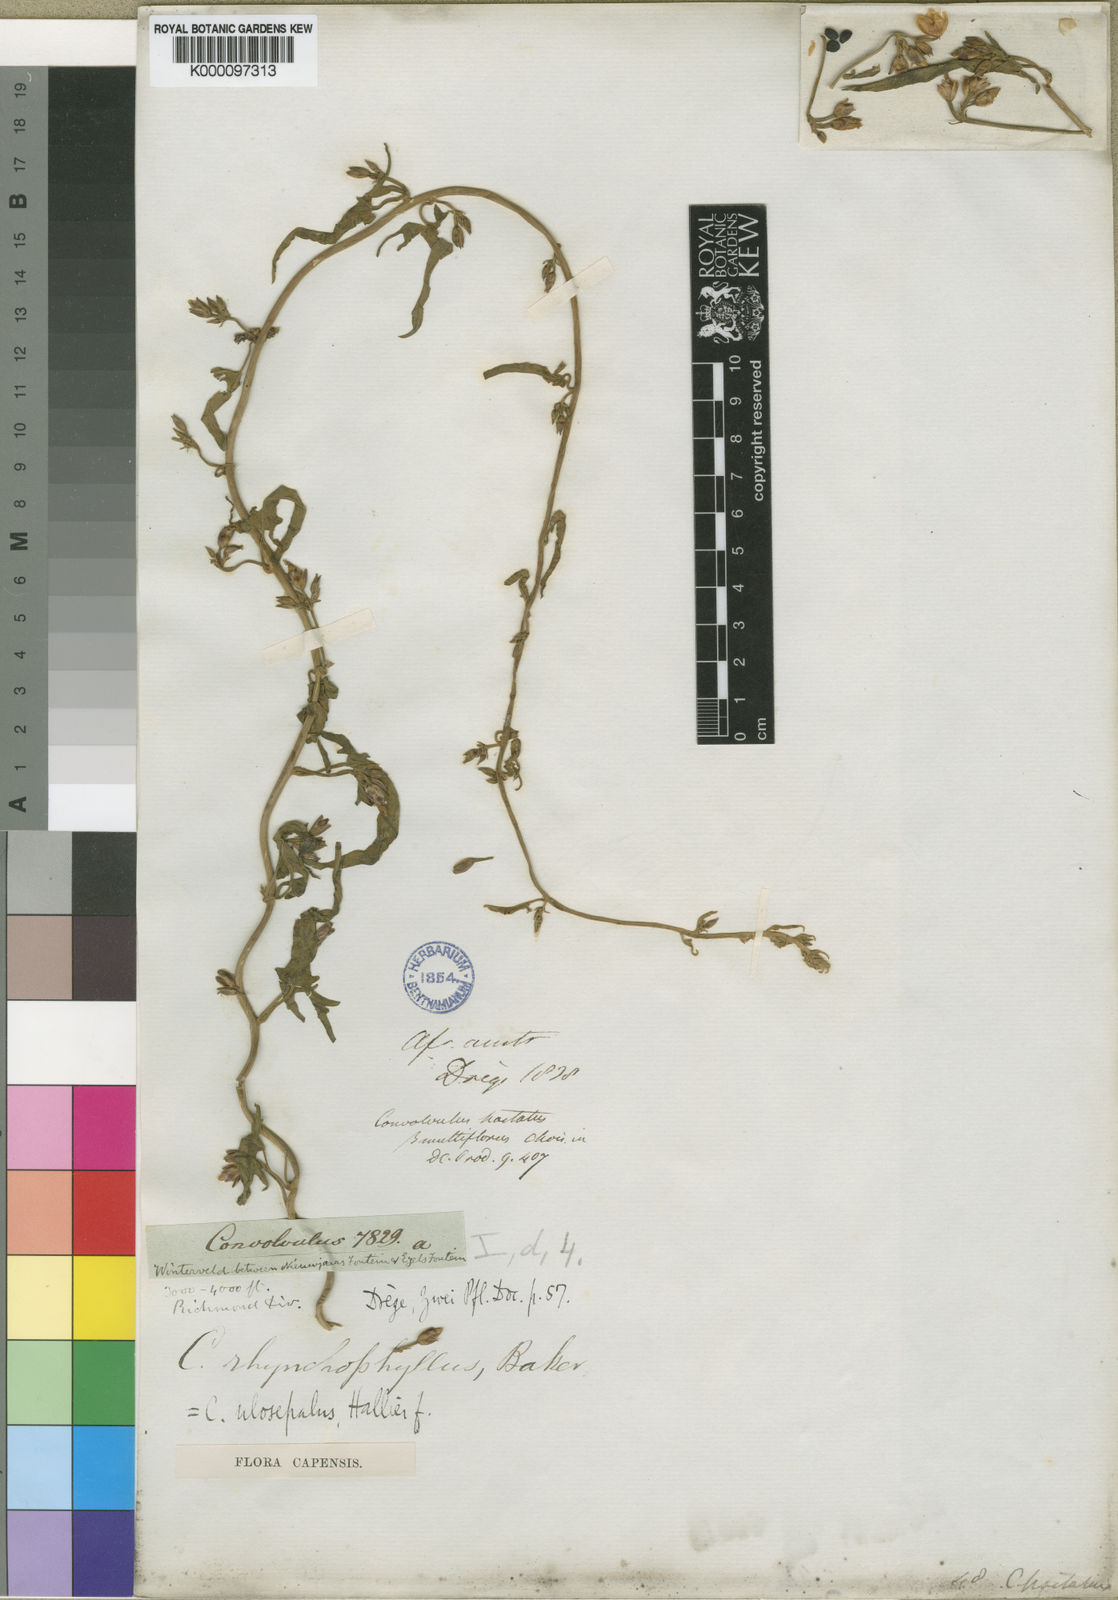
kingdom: Plantae
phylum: Tracheophyta
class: Magnoliopsida
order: Solanales
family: Convolvulaceae
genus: Convolvulus
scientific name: Convolvulus aschersonii
